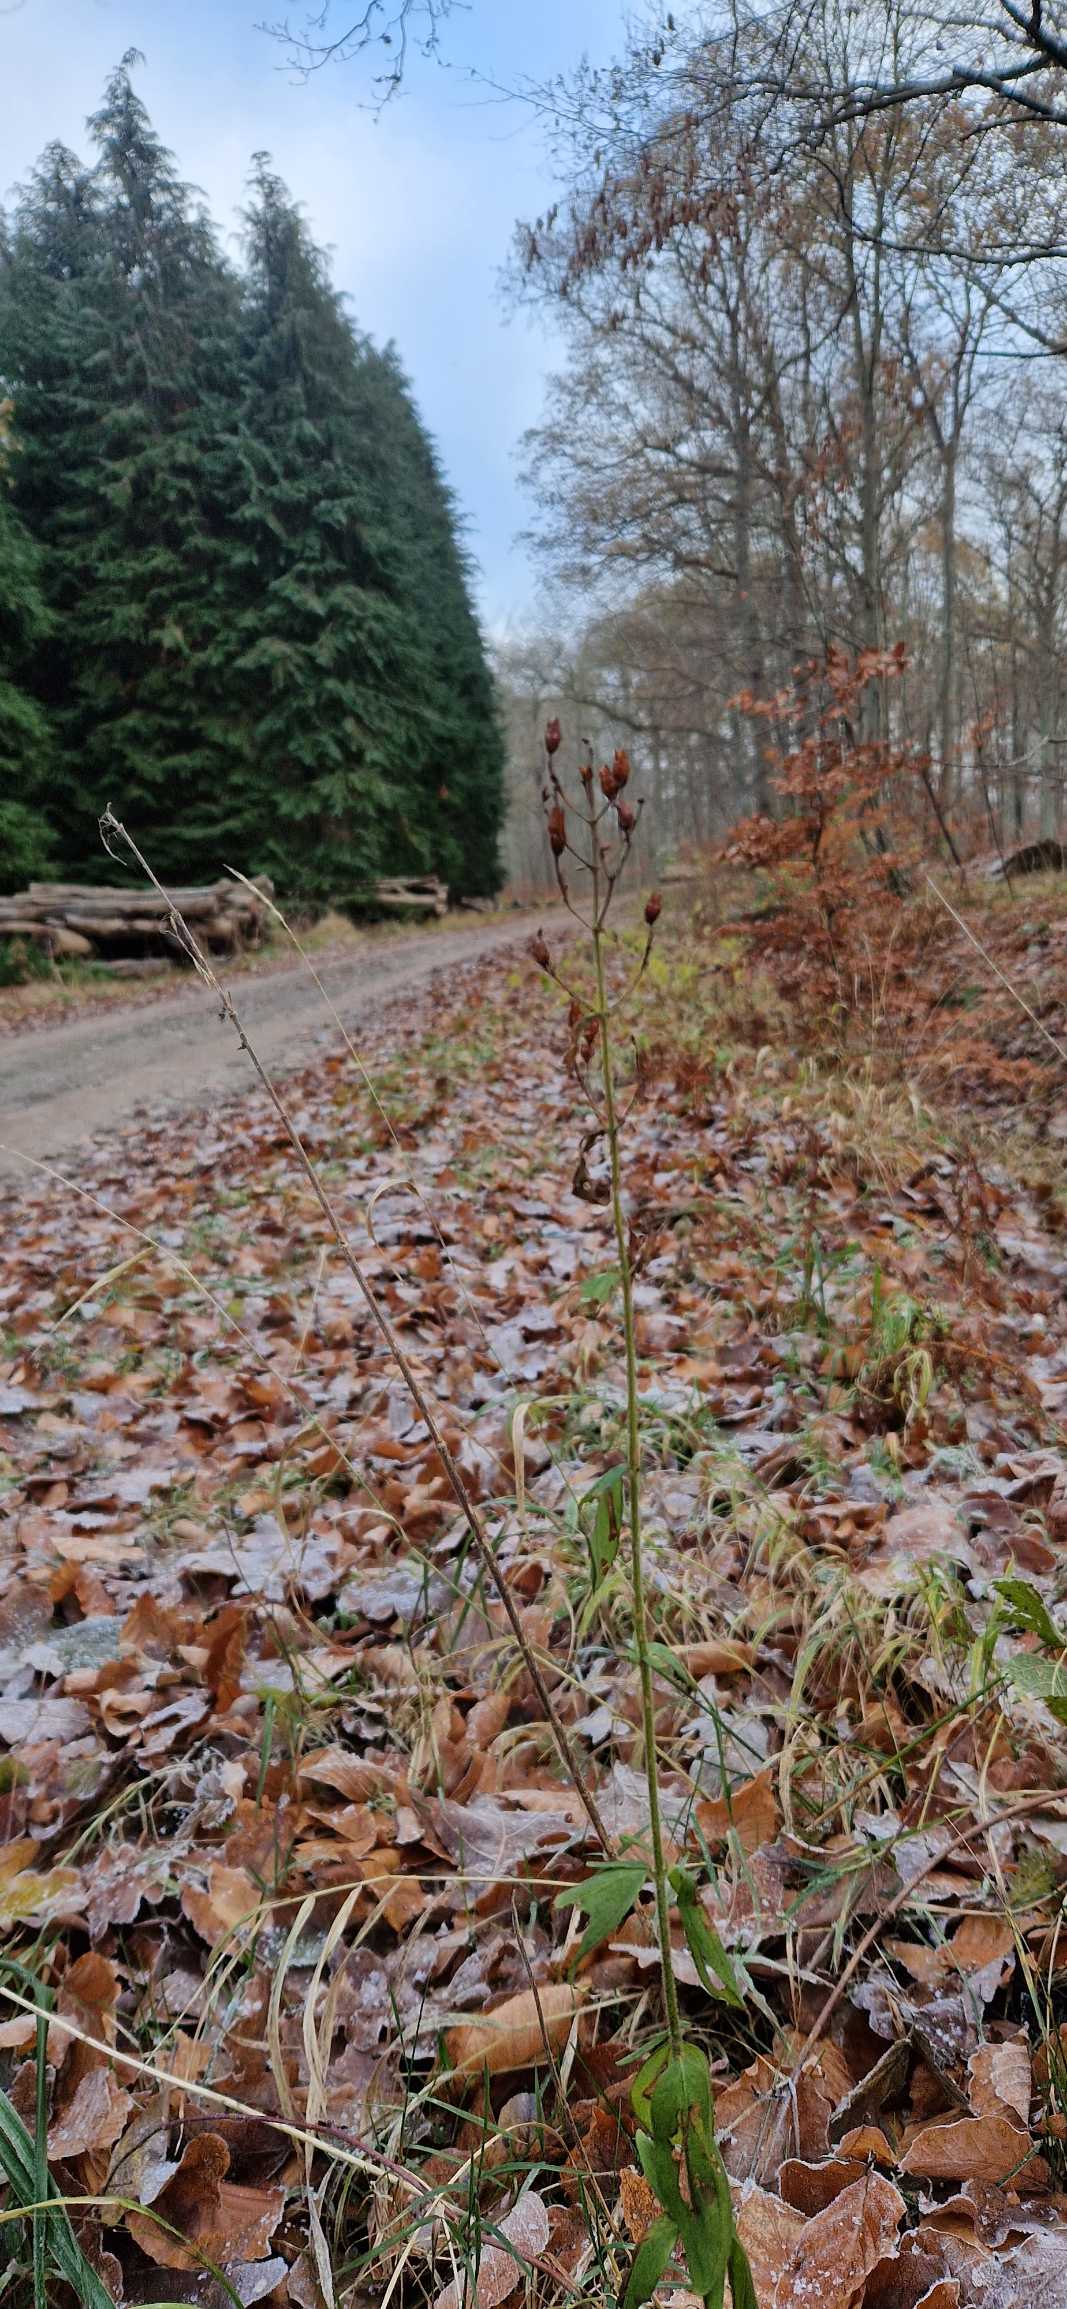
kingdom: Plantae
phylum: Tracheophyta
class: Magnoliopsida
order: Malpighiales
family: Hypericaceae
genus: Hypericum
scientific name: Hypericum hirsutum
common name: Lådden perikon
